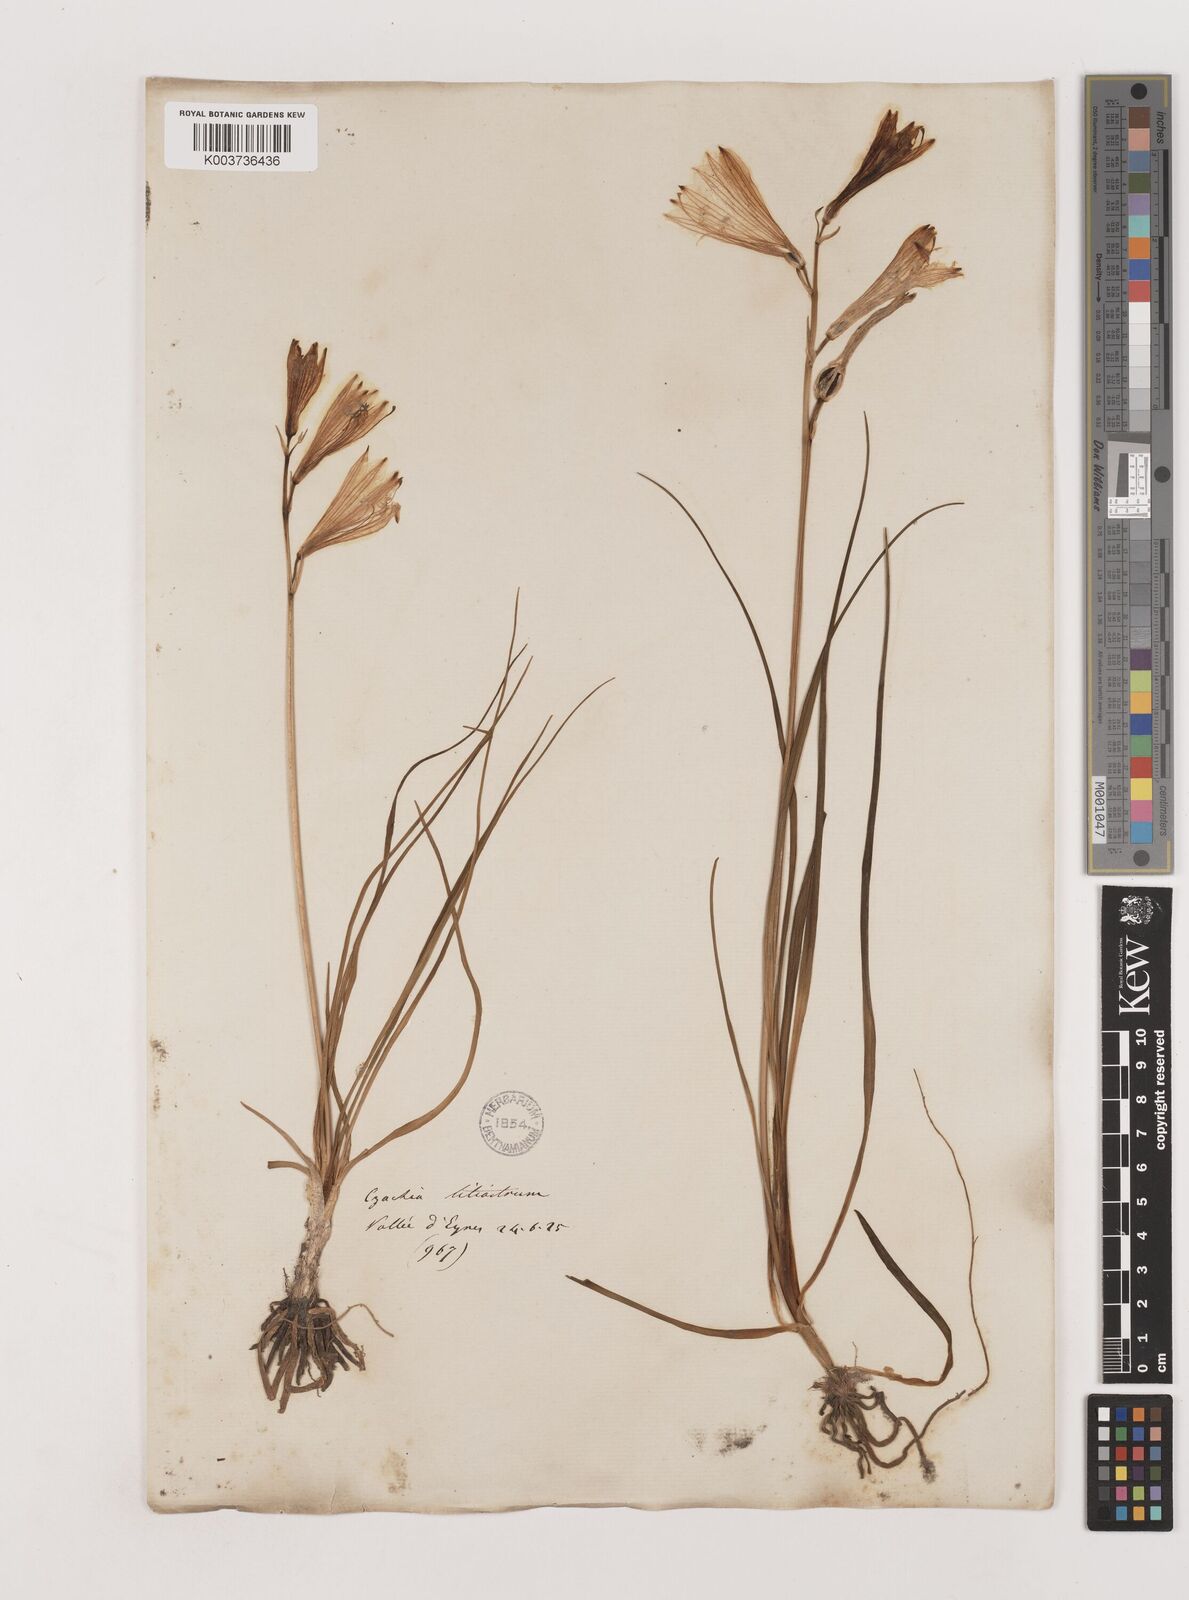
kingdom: Plantae
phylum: Tracheophyta
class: Liliopsida
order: Asparagales
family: Asparagaceae
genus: Paradisea
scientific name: Paradisea liliastrum
